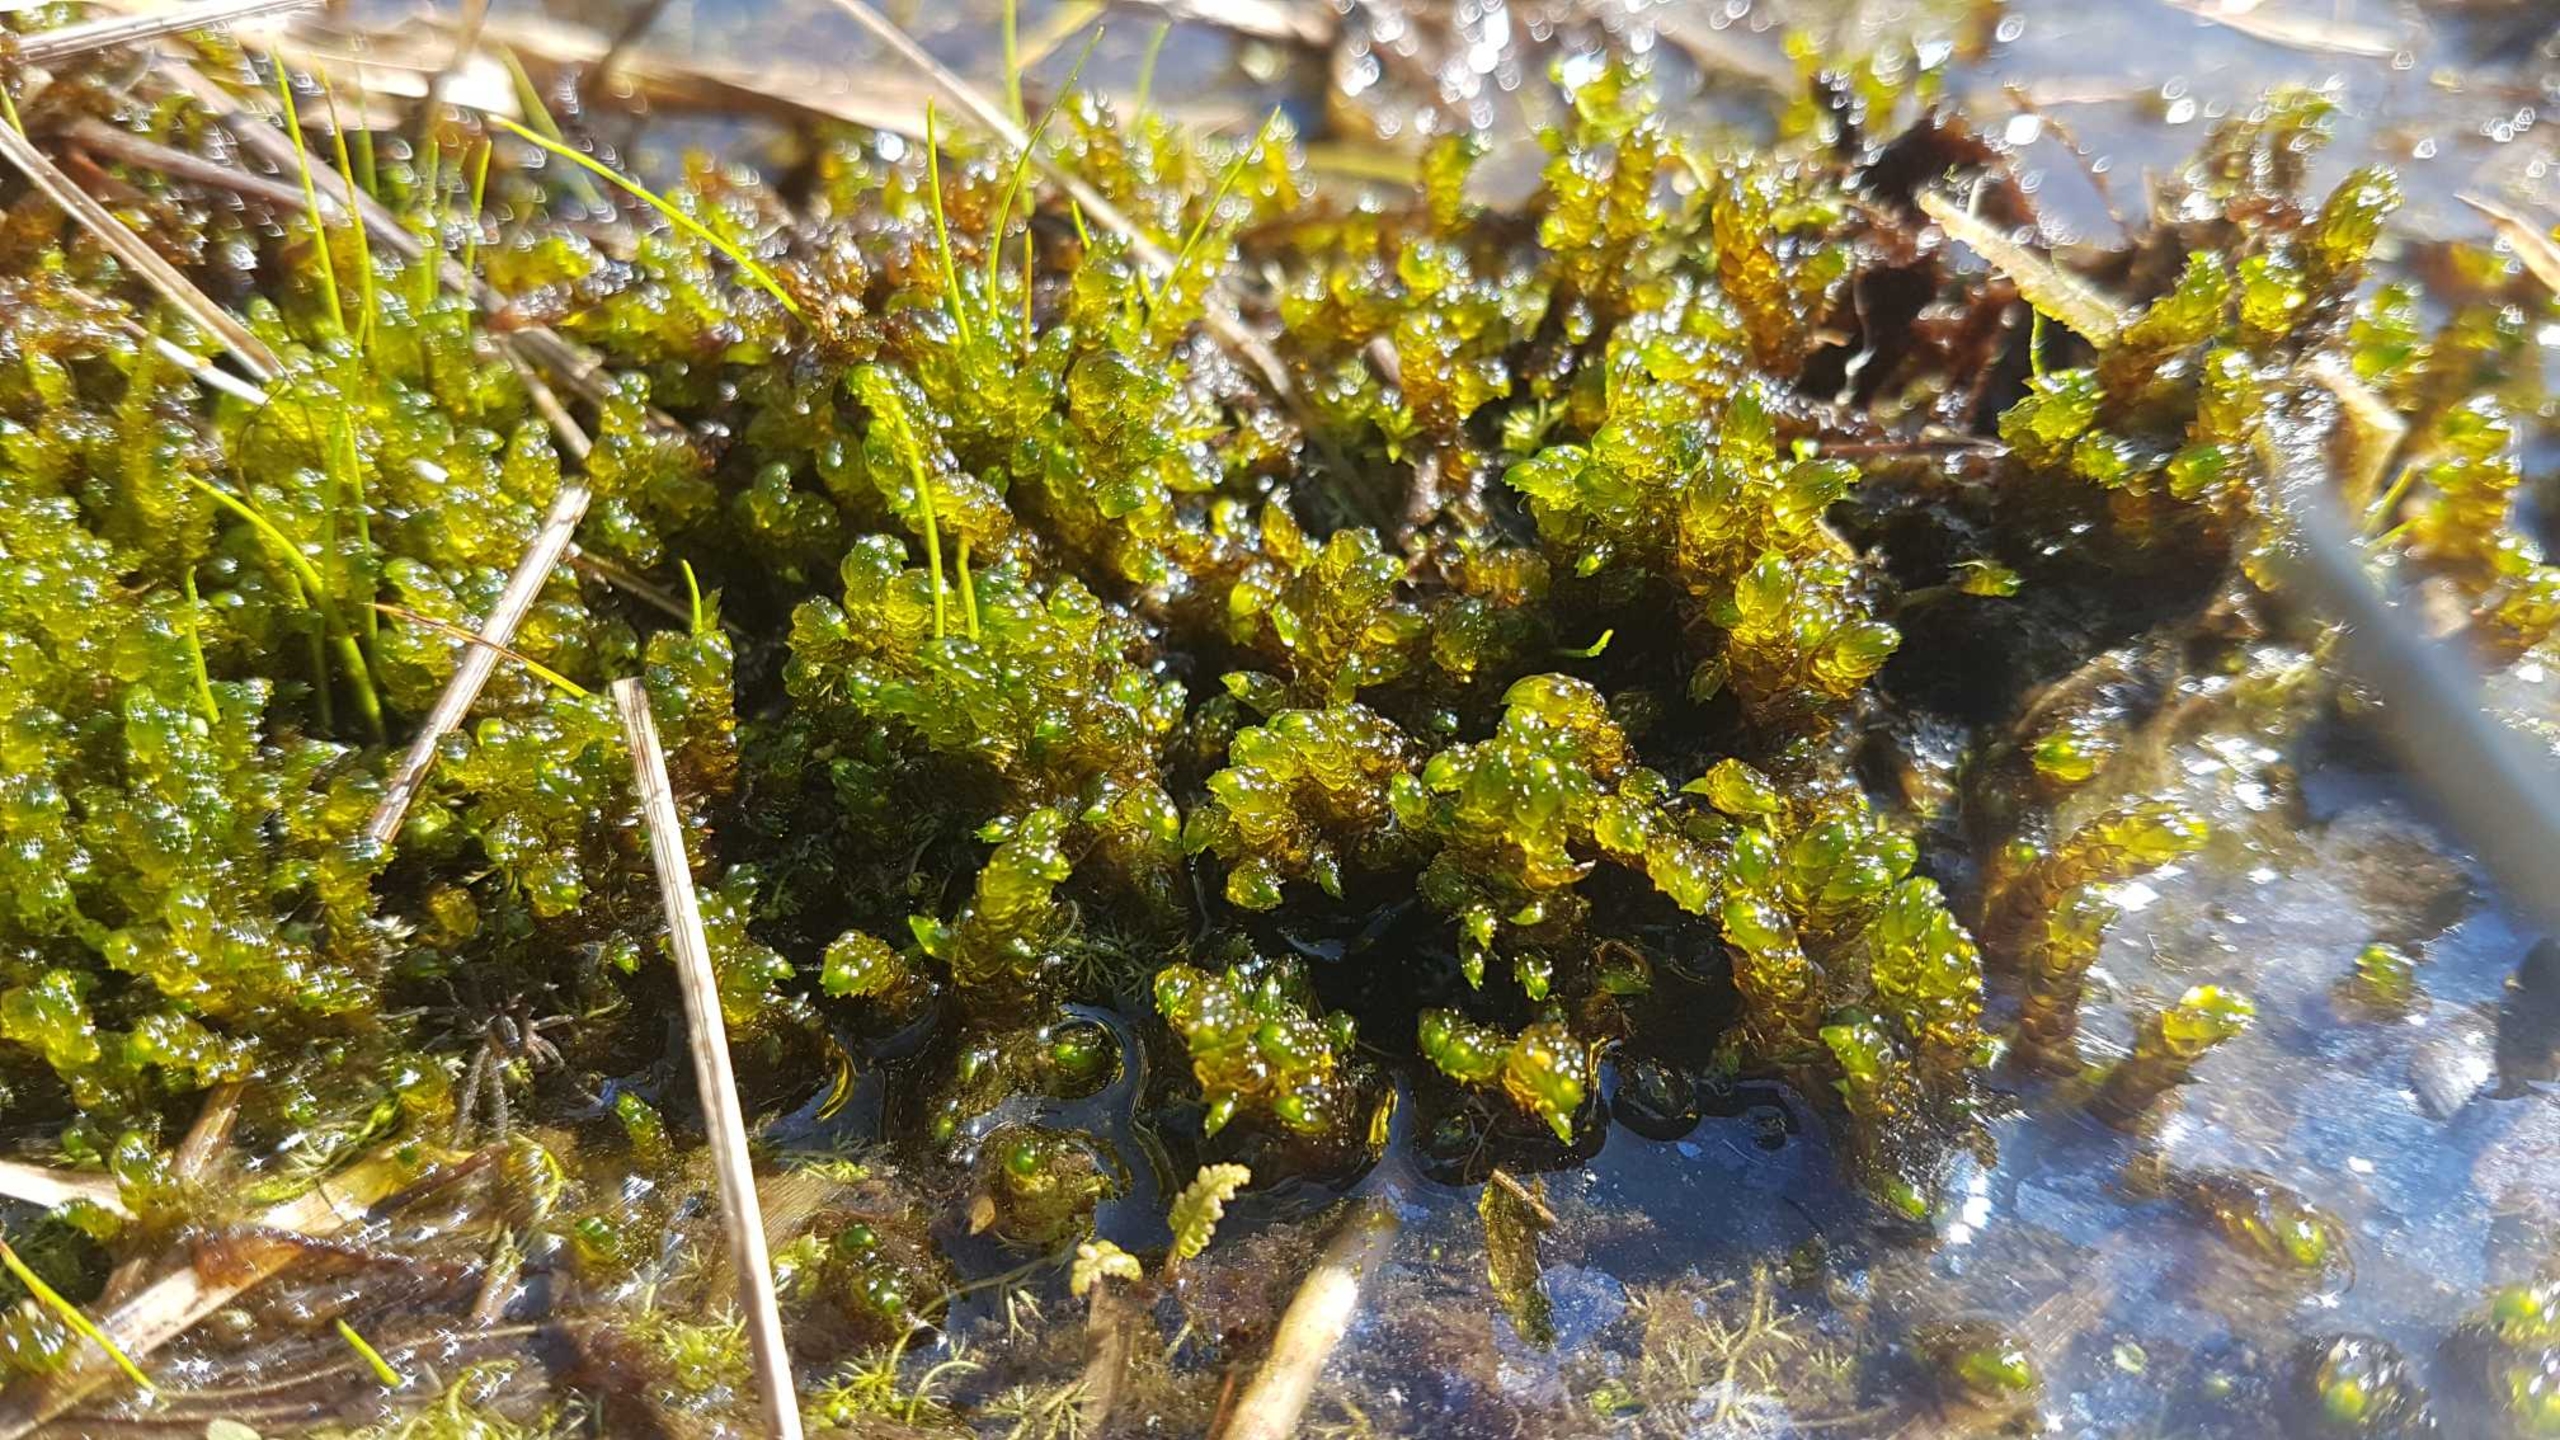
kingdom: Plantae
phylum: Bryophyta
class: Bryopsida
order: Hypnales
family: Scorpidiaceae
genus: Scorpidium
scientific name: Scorpidium scorpioides
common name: Stor skorpionmos
